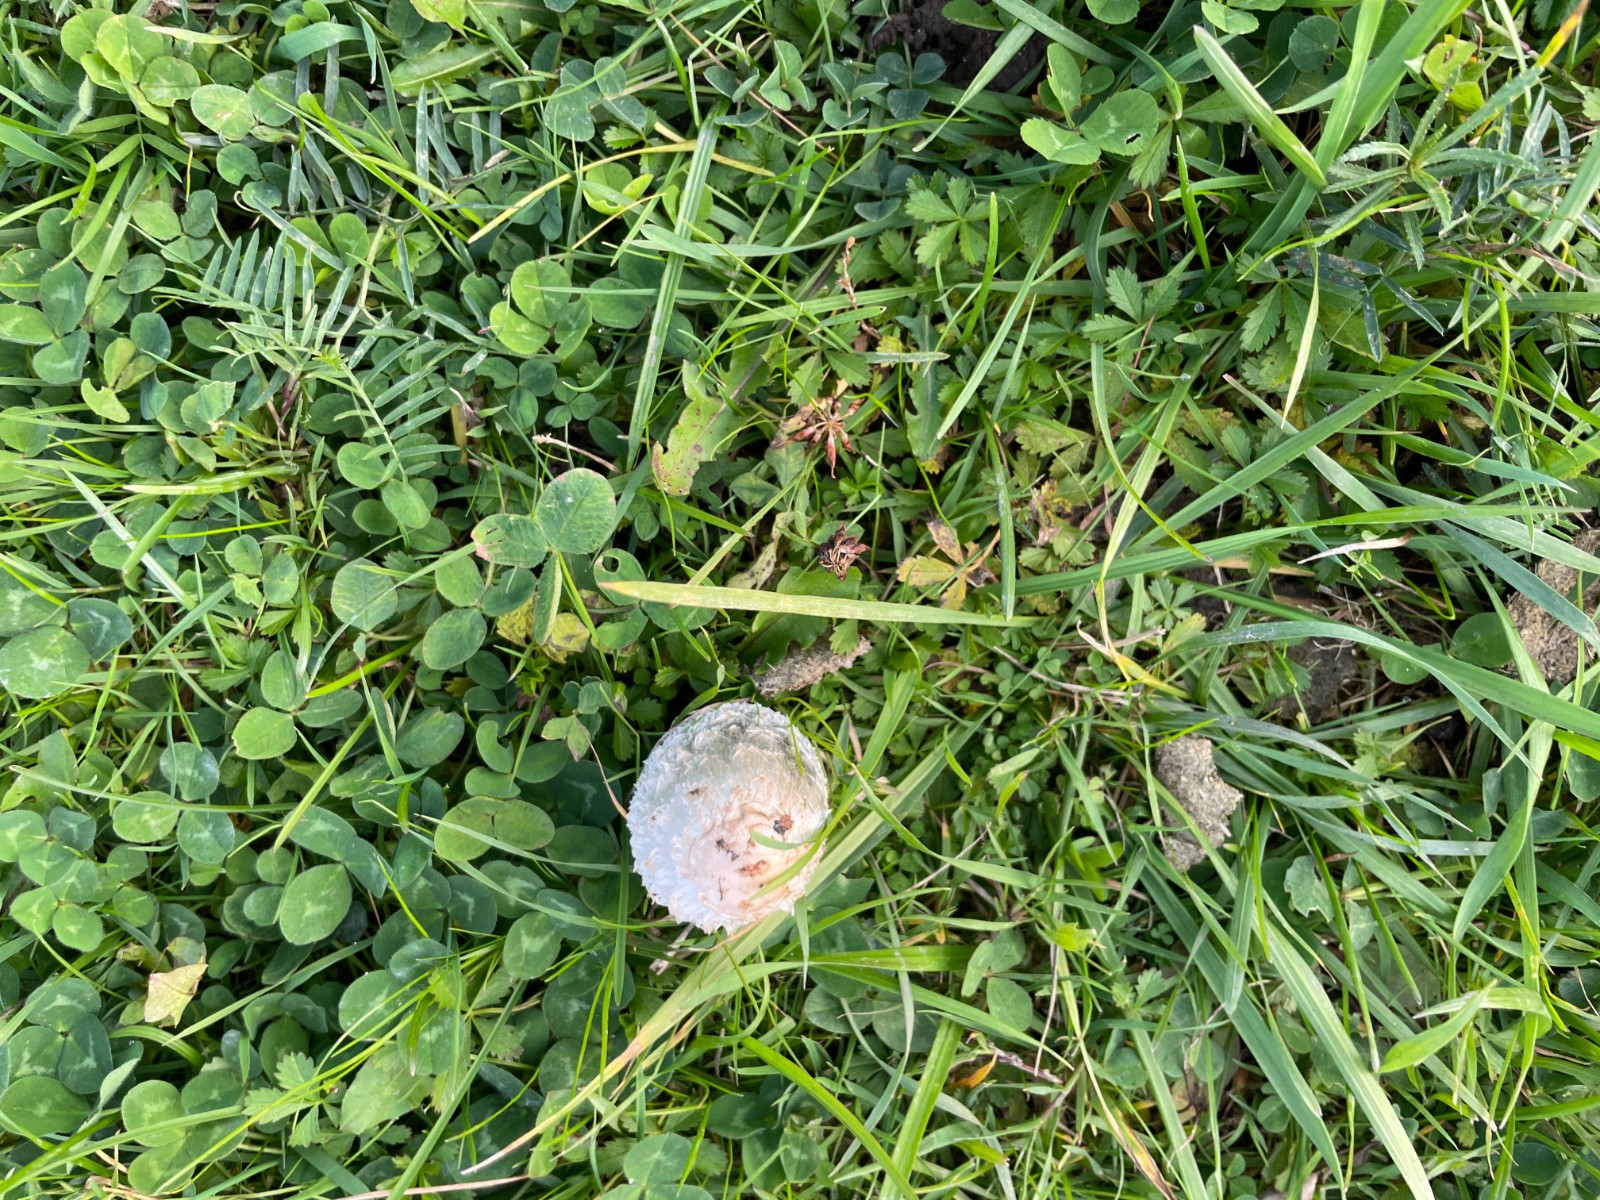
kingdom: Fungi
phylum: Basidiomycota
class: Agaricomycetes
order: Agaricales
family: Agaricaceae
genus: Coprinus
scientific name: Coprinus comatus
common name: stor parykhat
